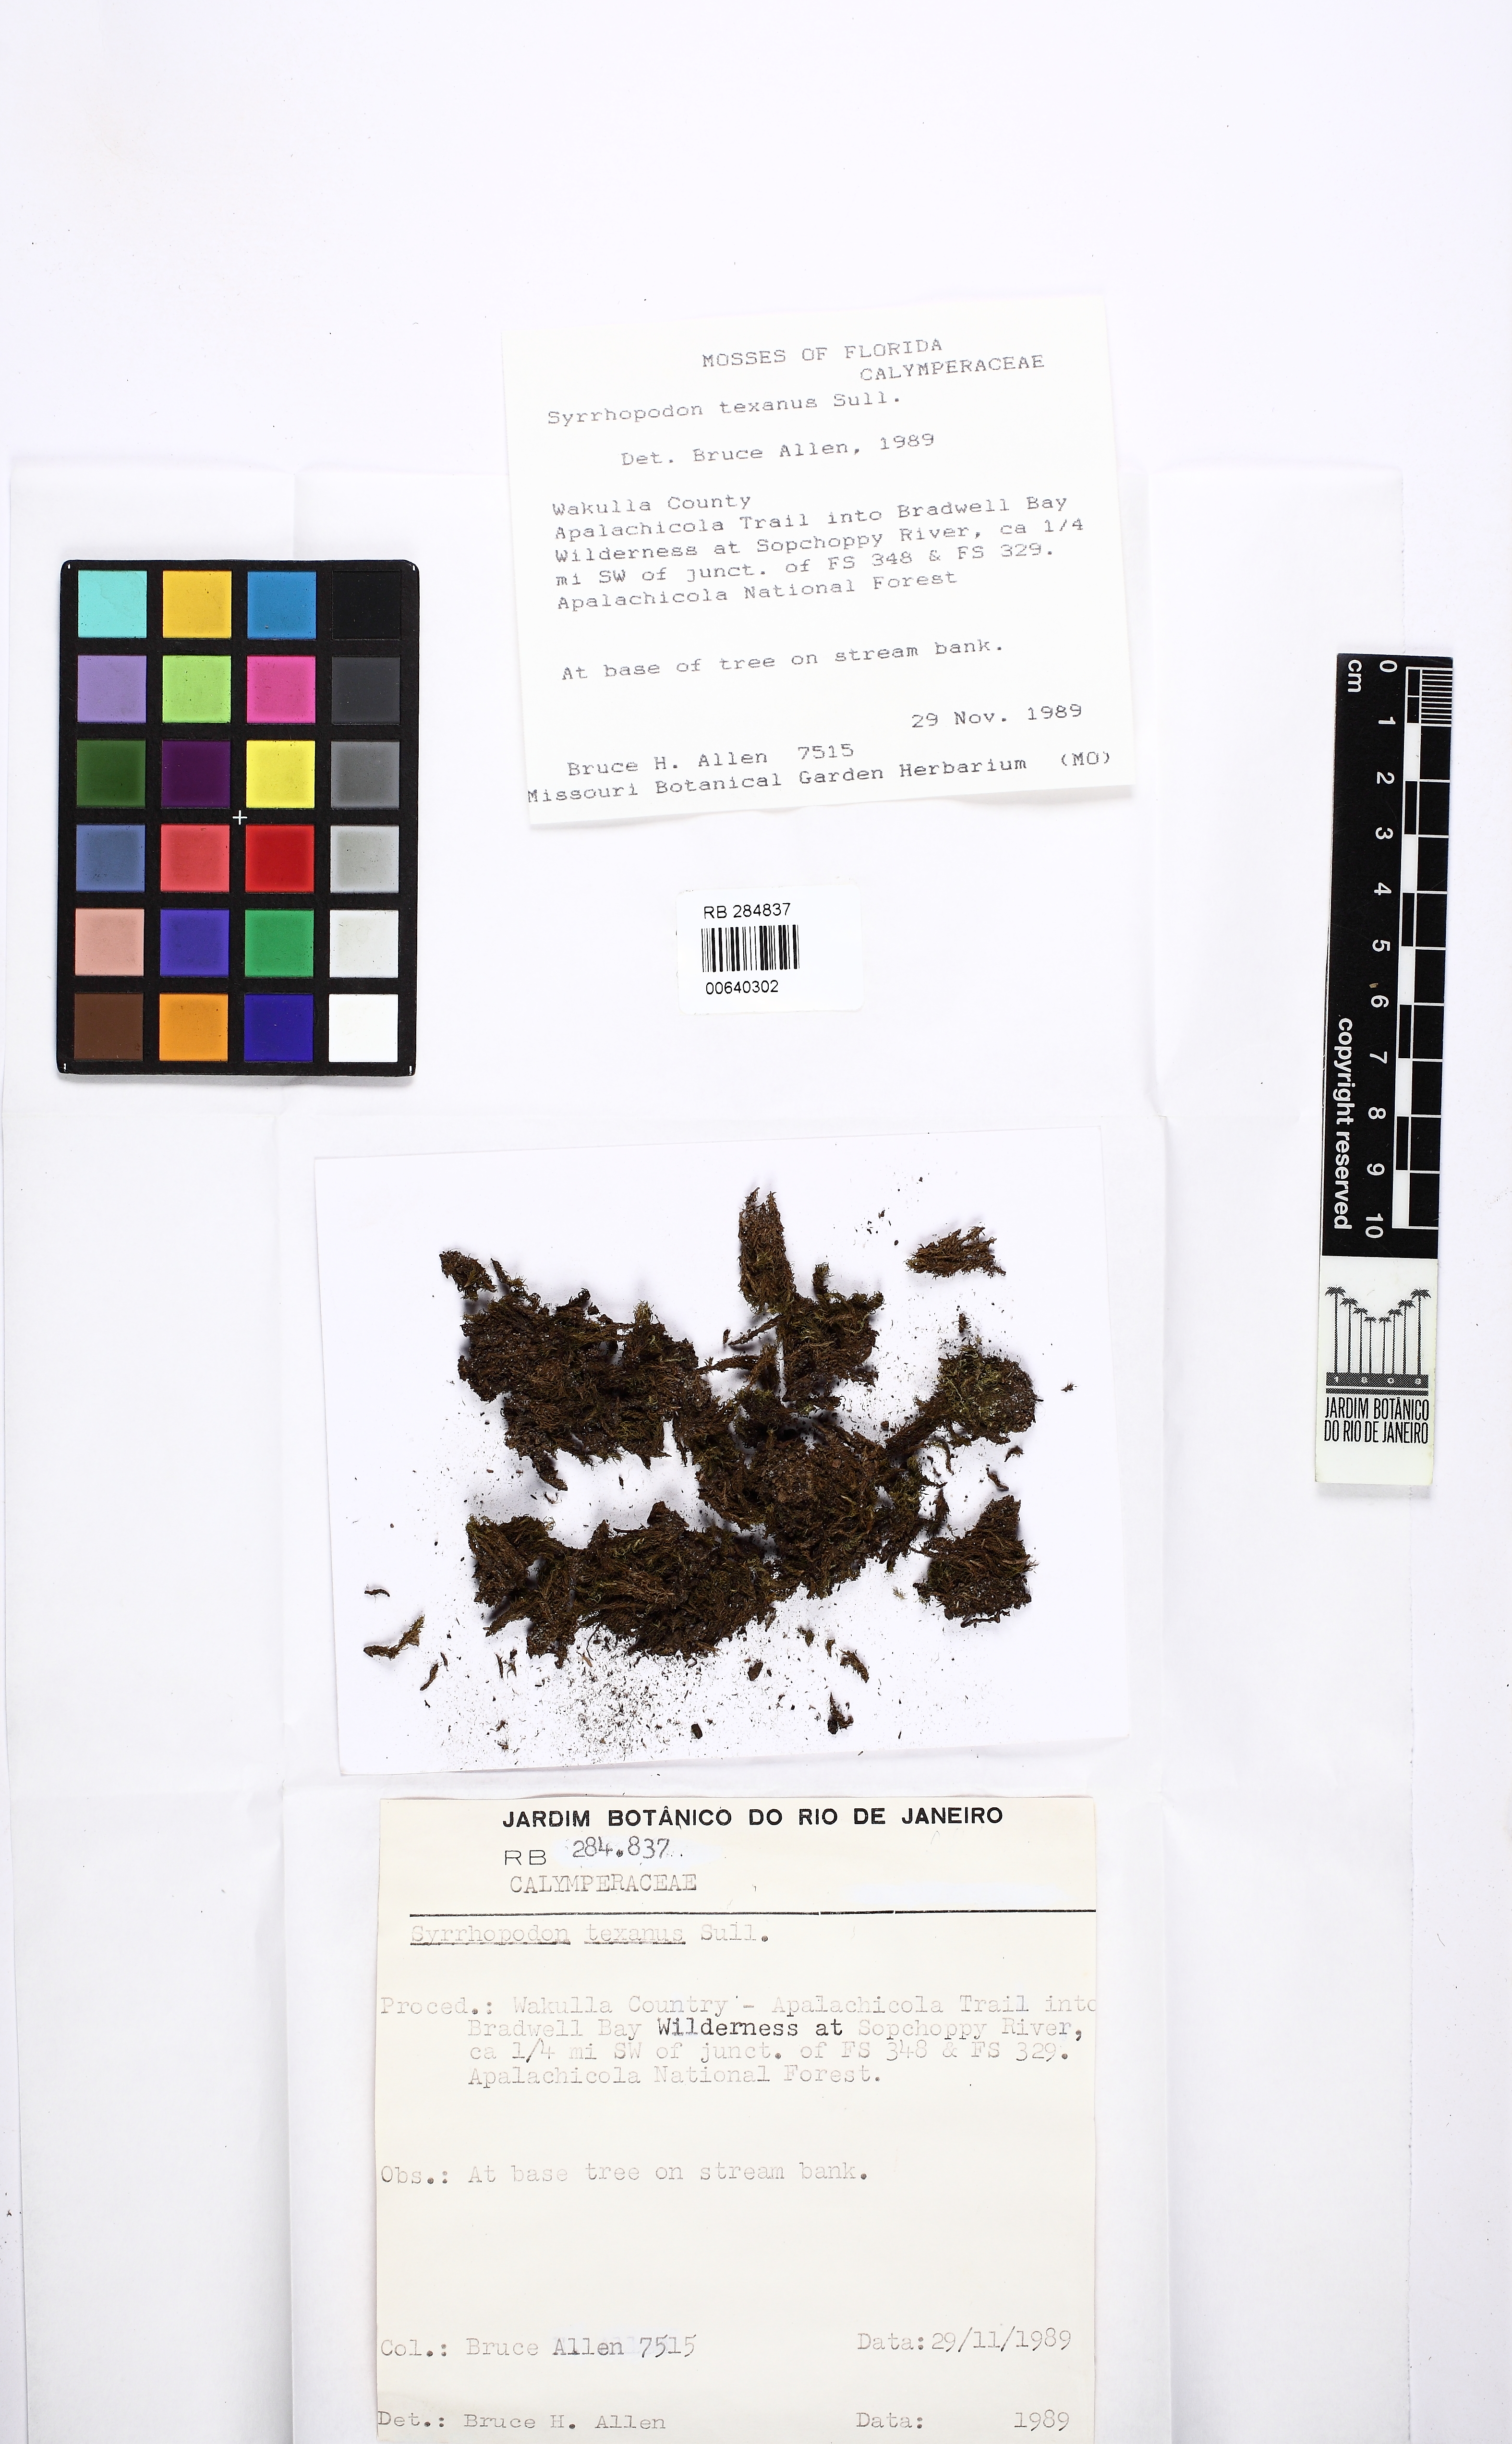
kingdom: Plantae
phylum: Bryophyta
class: Bryopsida
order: Dicranales
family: Calymperaceae
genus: Syrrhopodon
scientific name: Syrrhopodon texanus
